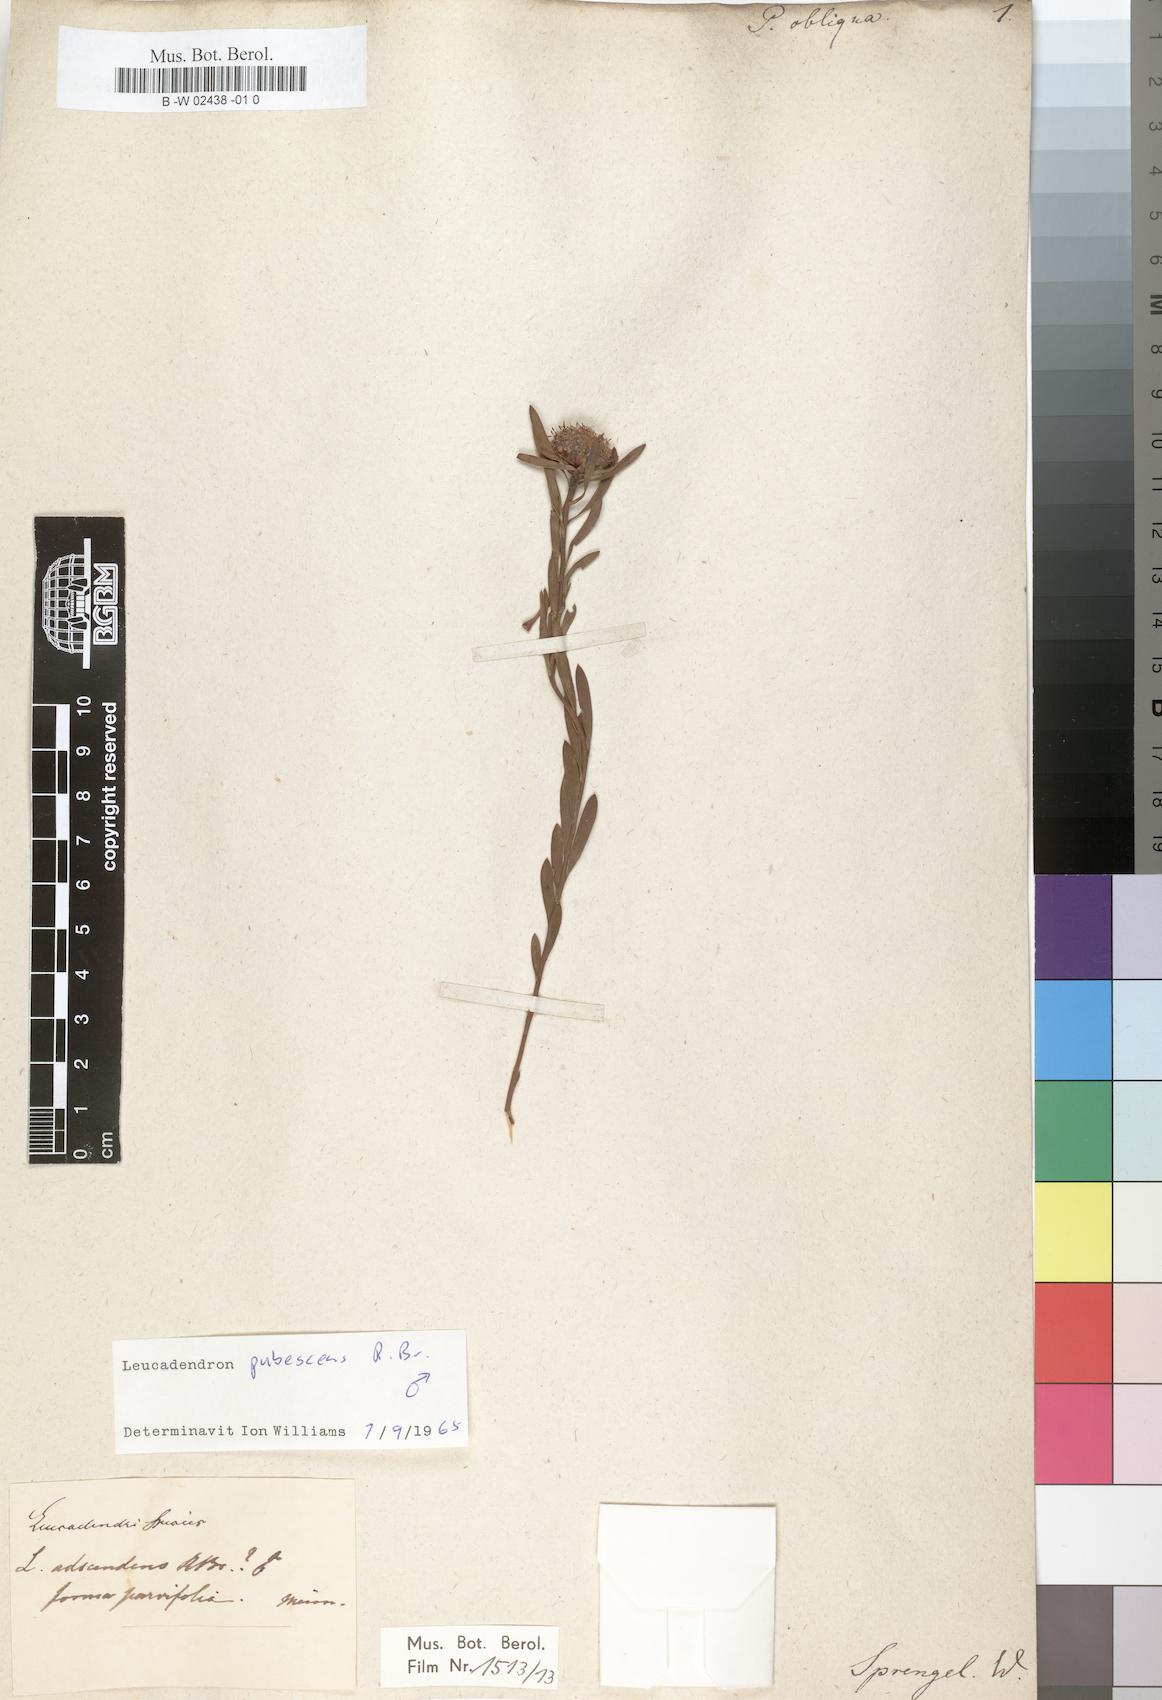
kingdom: Plantae
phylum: Tracheophyta
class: Magnoliopsida
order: Proteales
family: Proteaceae
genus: Protea
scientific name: Protea obliqua
